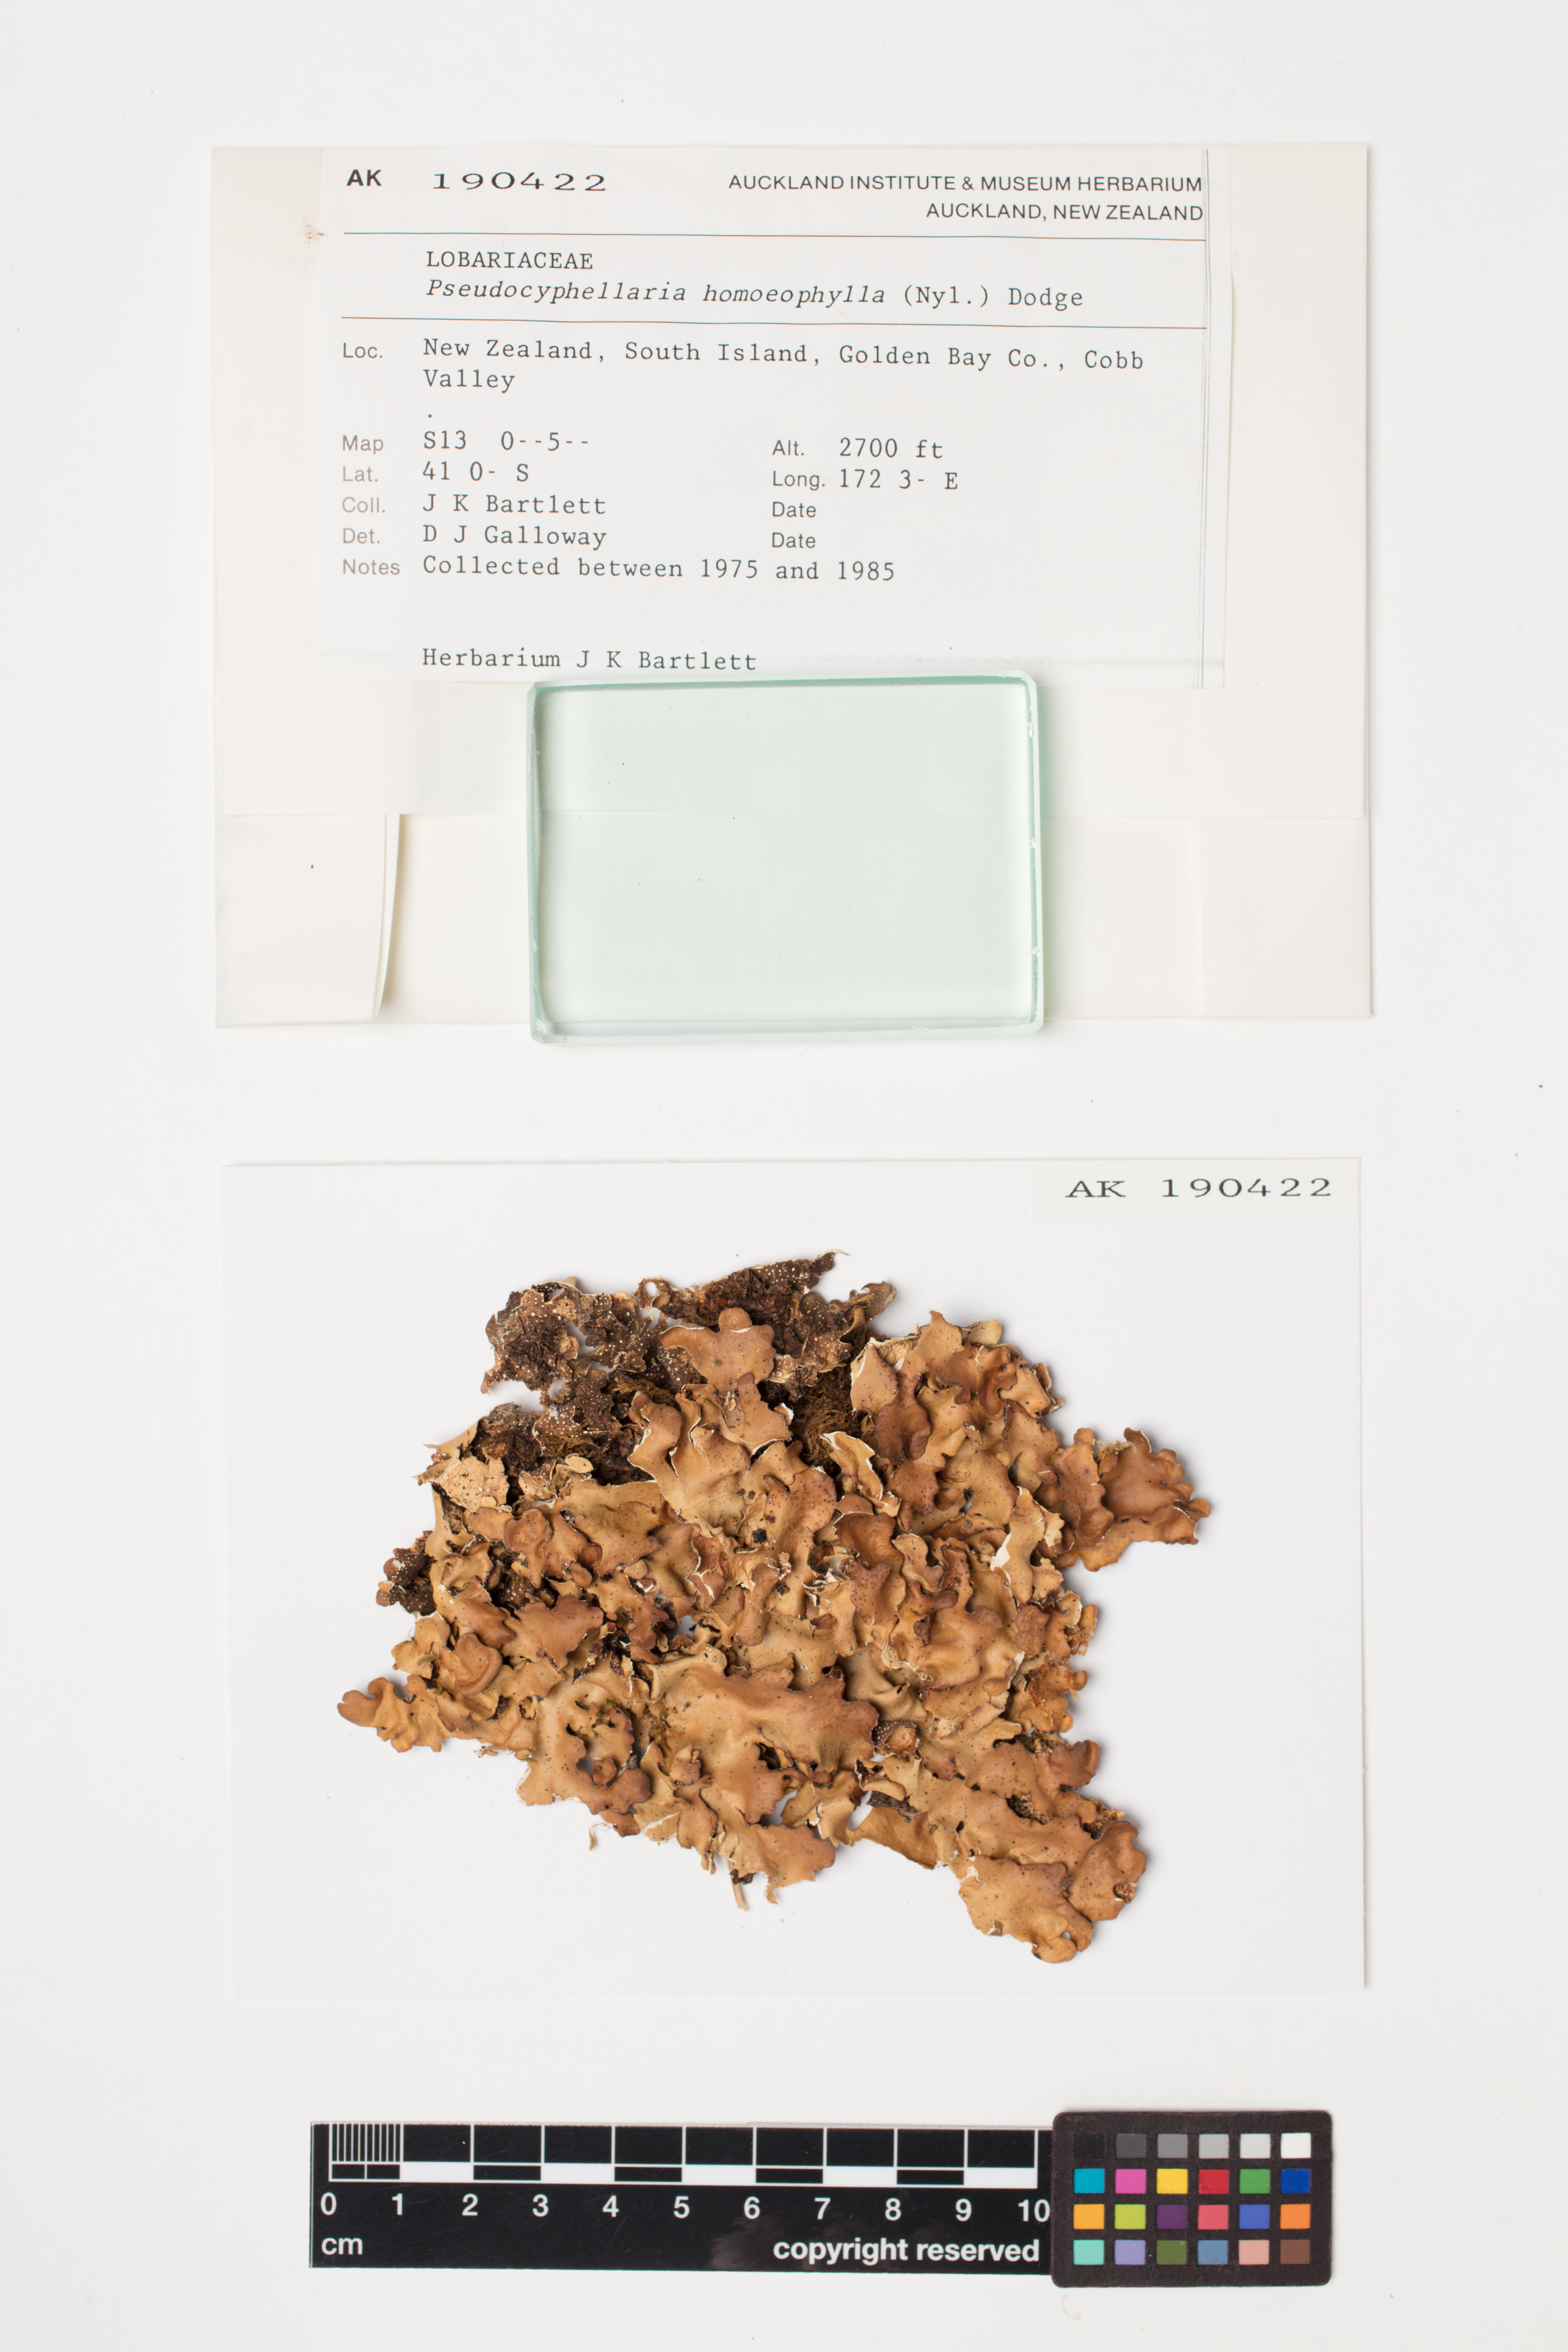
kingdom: Fungi
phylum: Ascomycota
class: Lecanoromycetes
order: Peltigerales
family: Lobariaceae
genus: Pseudocyphellaria
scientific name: Pseudocyphellaria homeophylla
